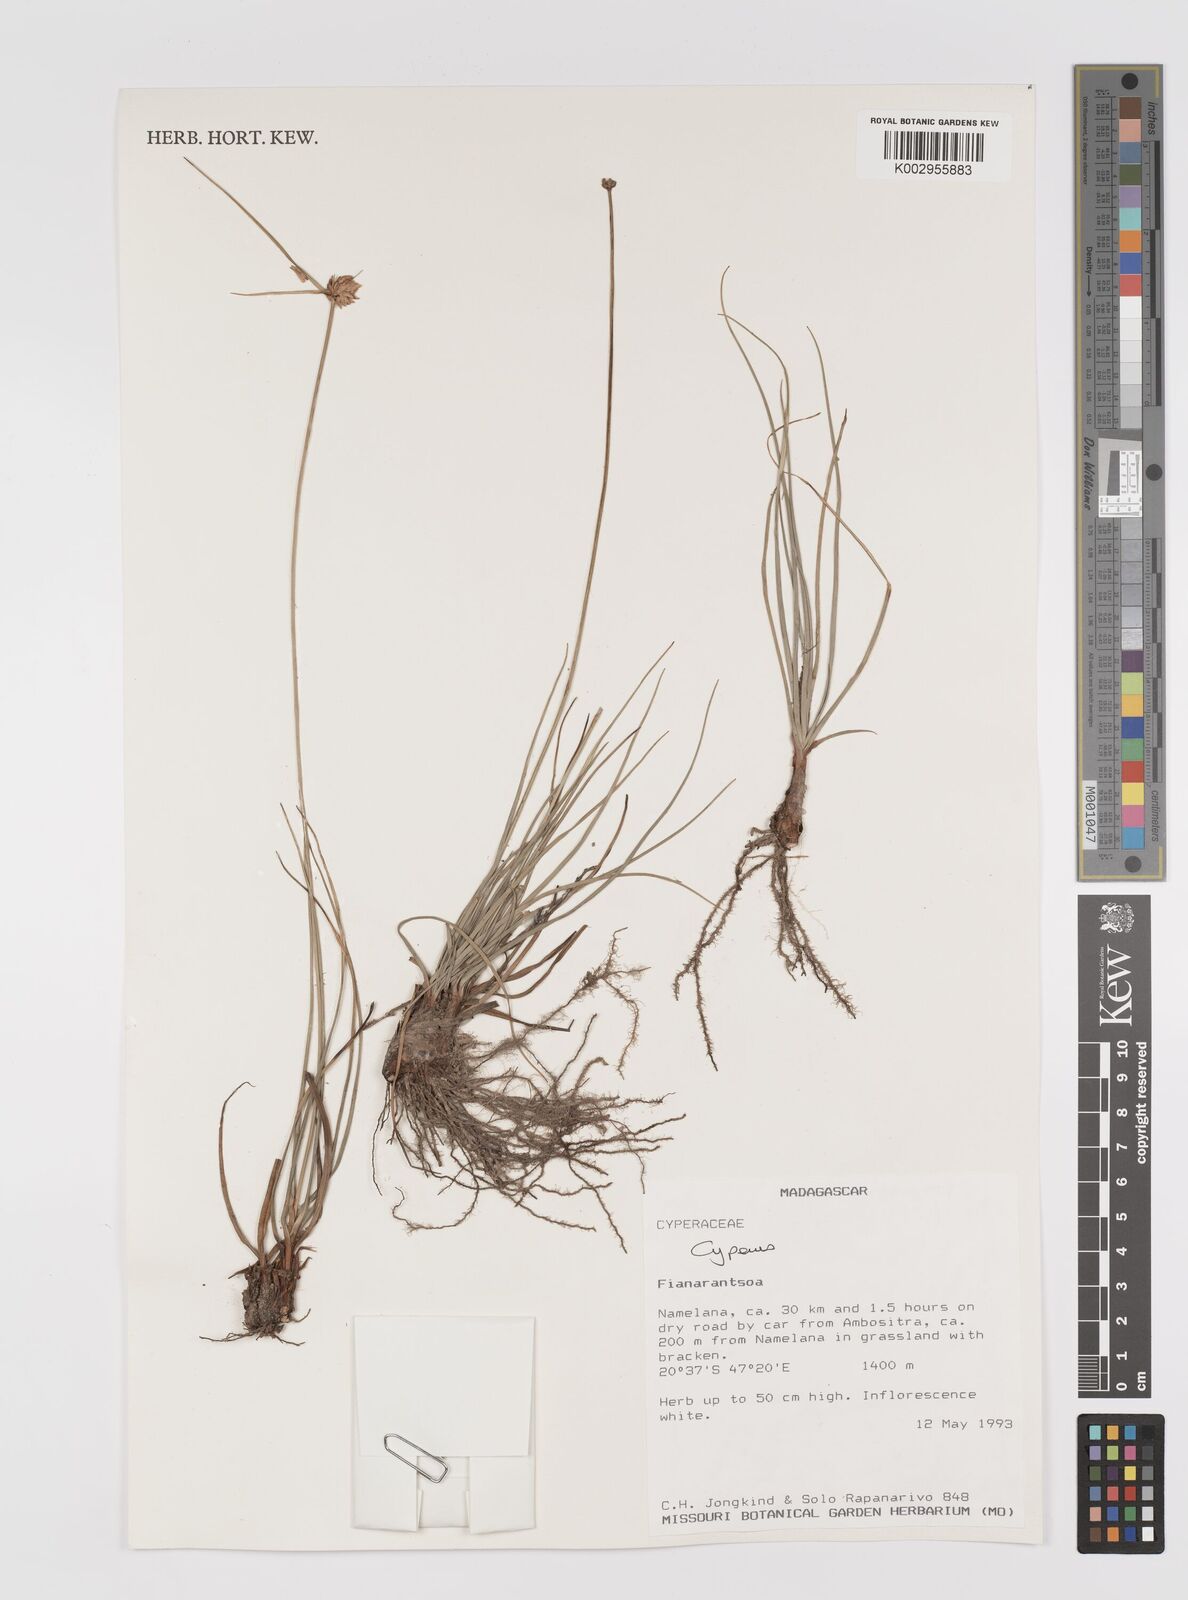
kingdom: Plantae
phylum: Tracheophyta
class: Liliopsida
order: Poales
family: Cyperaceae
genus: Cyperus
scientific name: Cyperus
